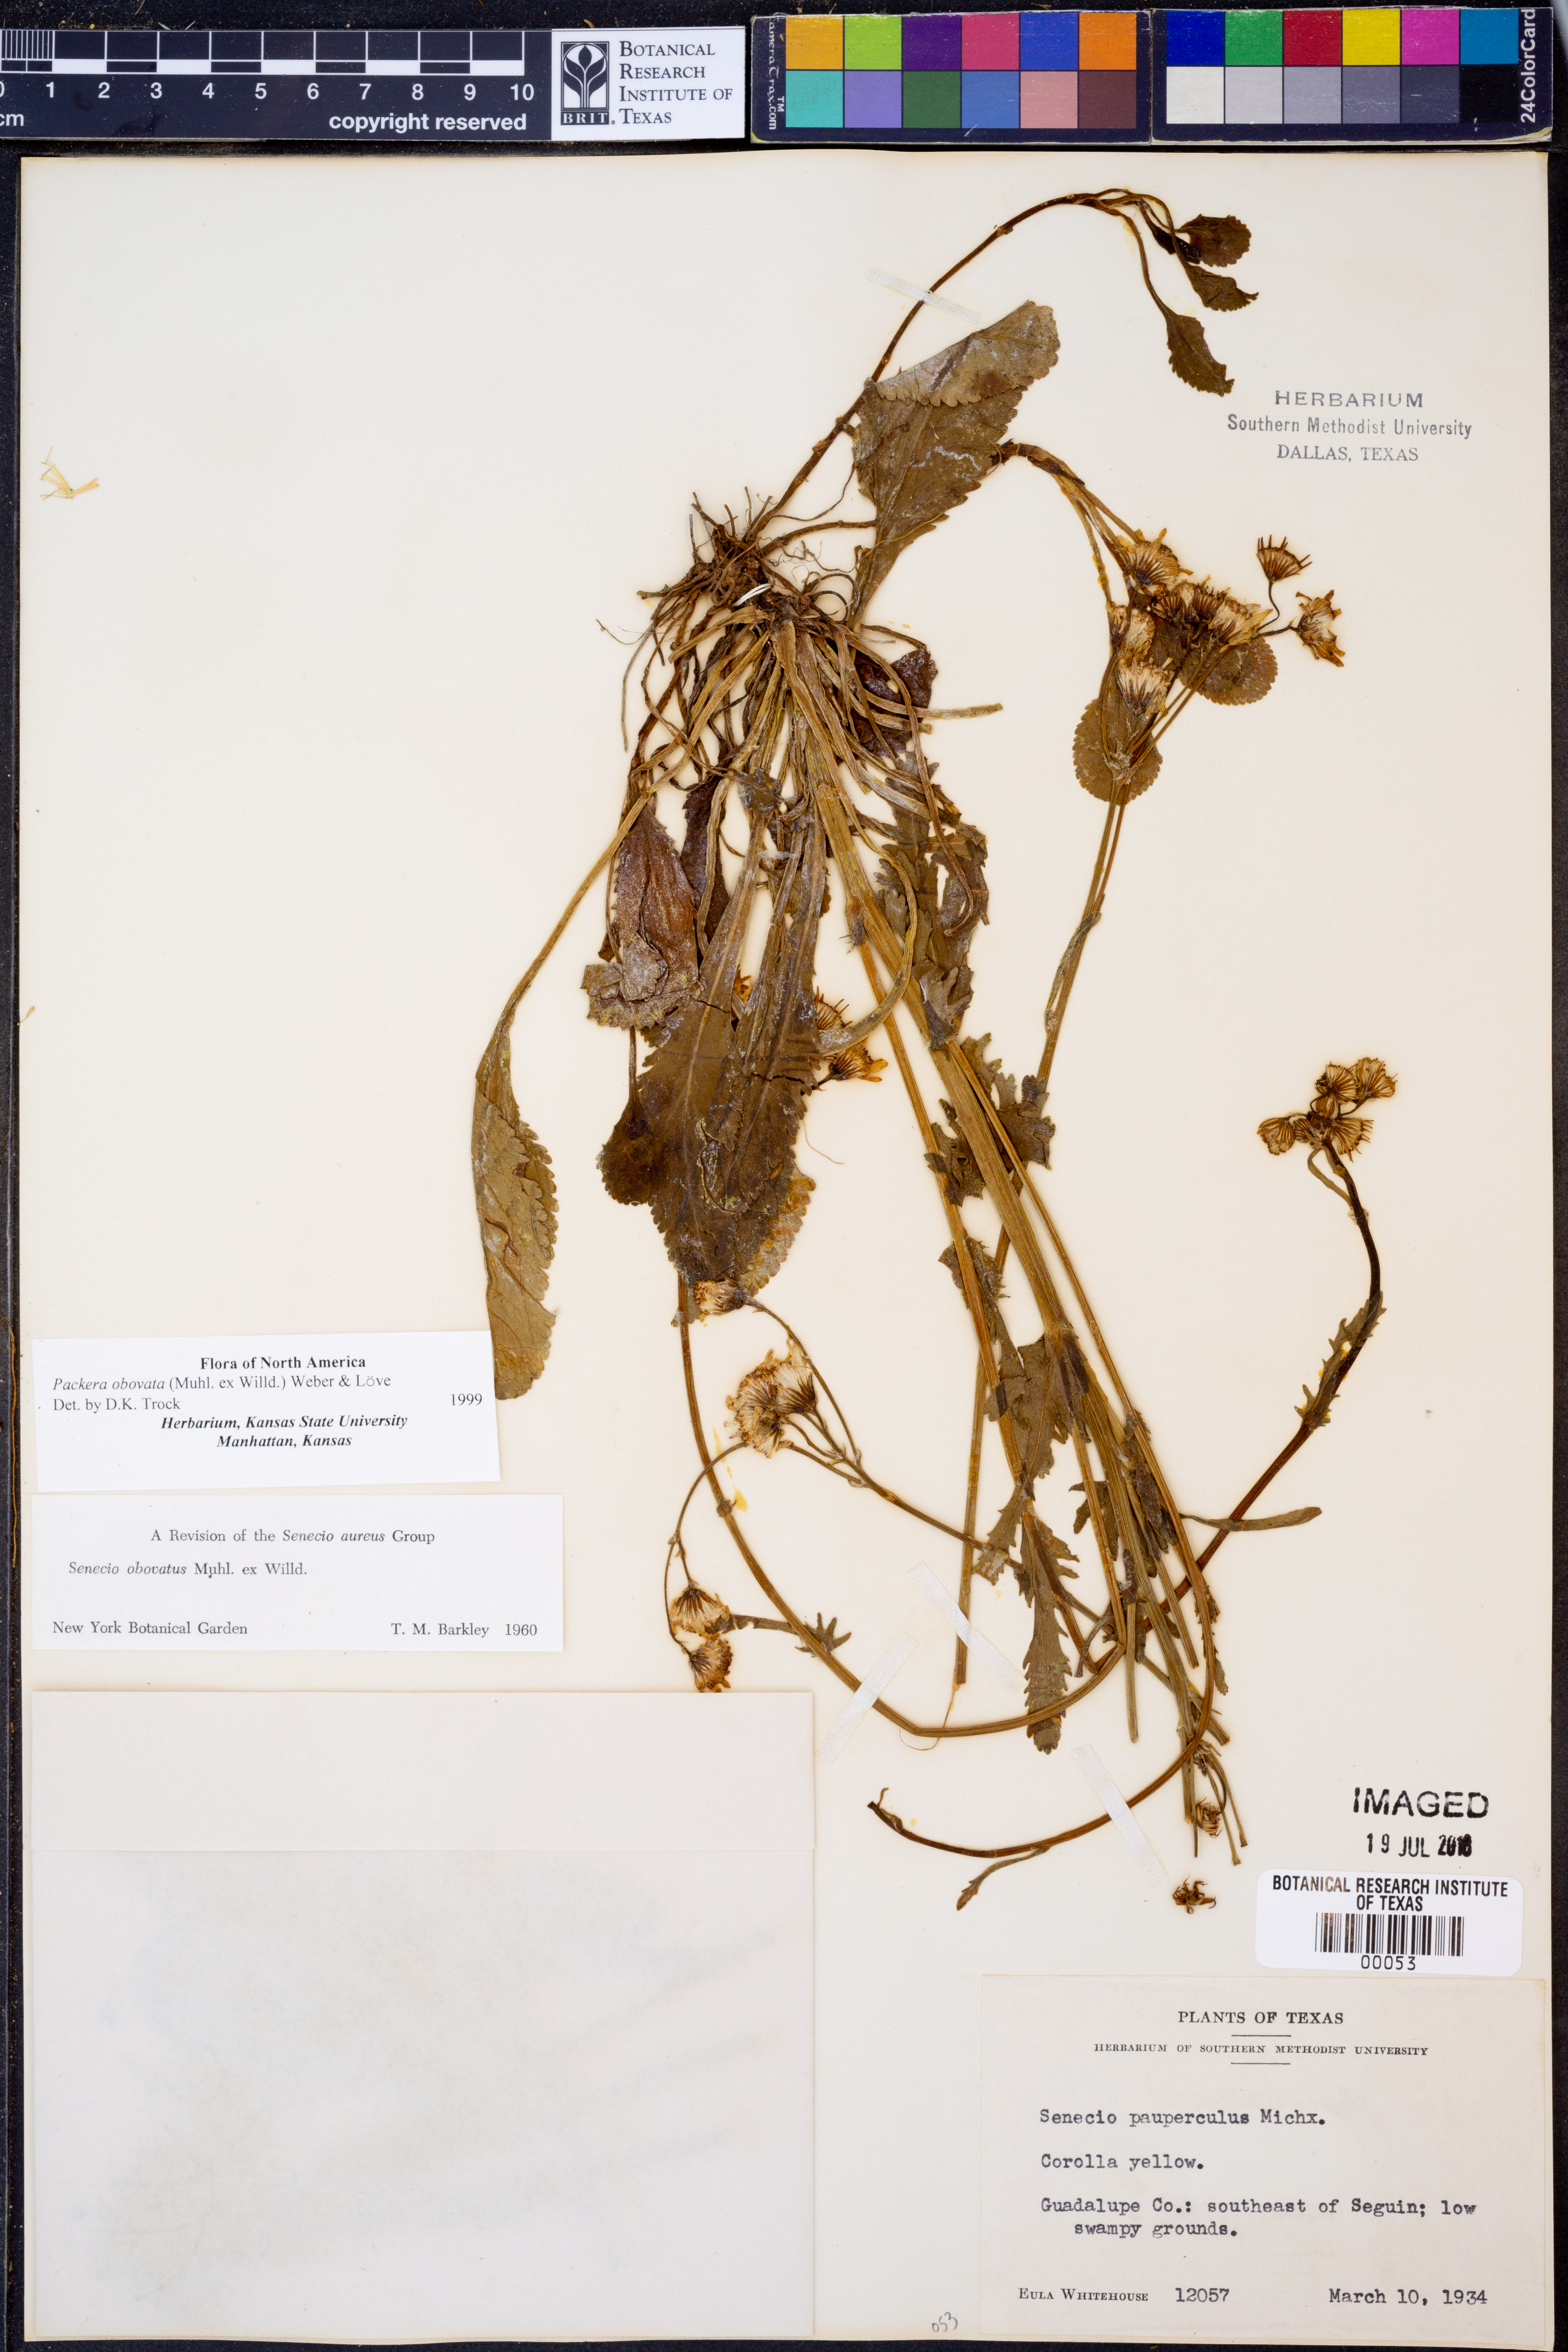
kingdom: Plantae
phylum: Tracheophyta
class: Magnoliopsida
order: Asterales
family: Asteraceae
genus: Packera
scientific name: Packera obovata
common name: Round-leaf ragwort
